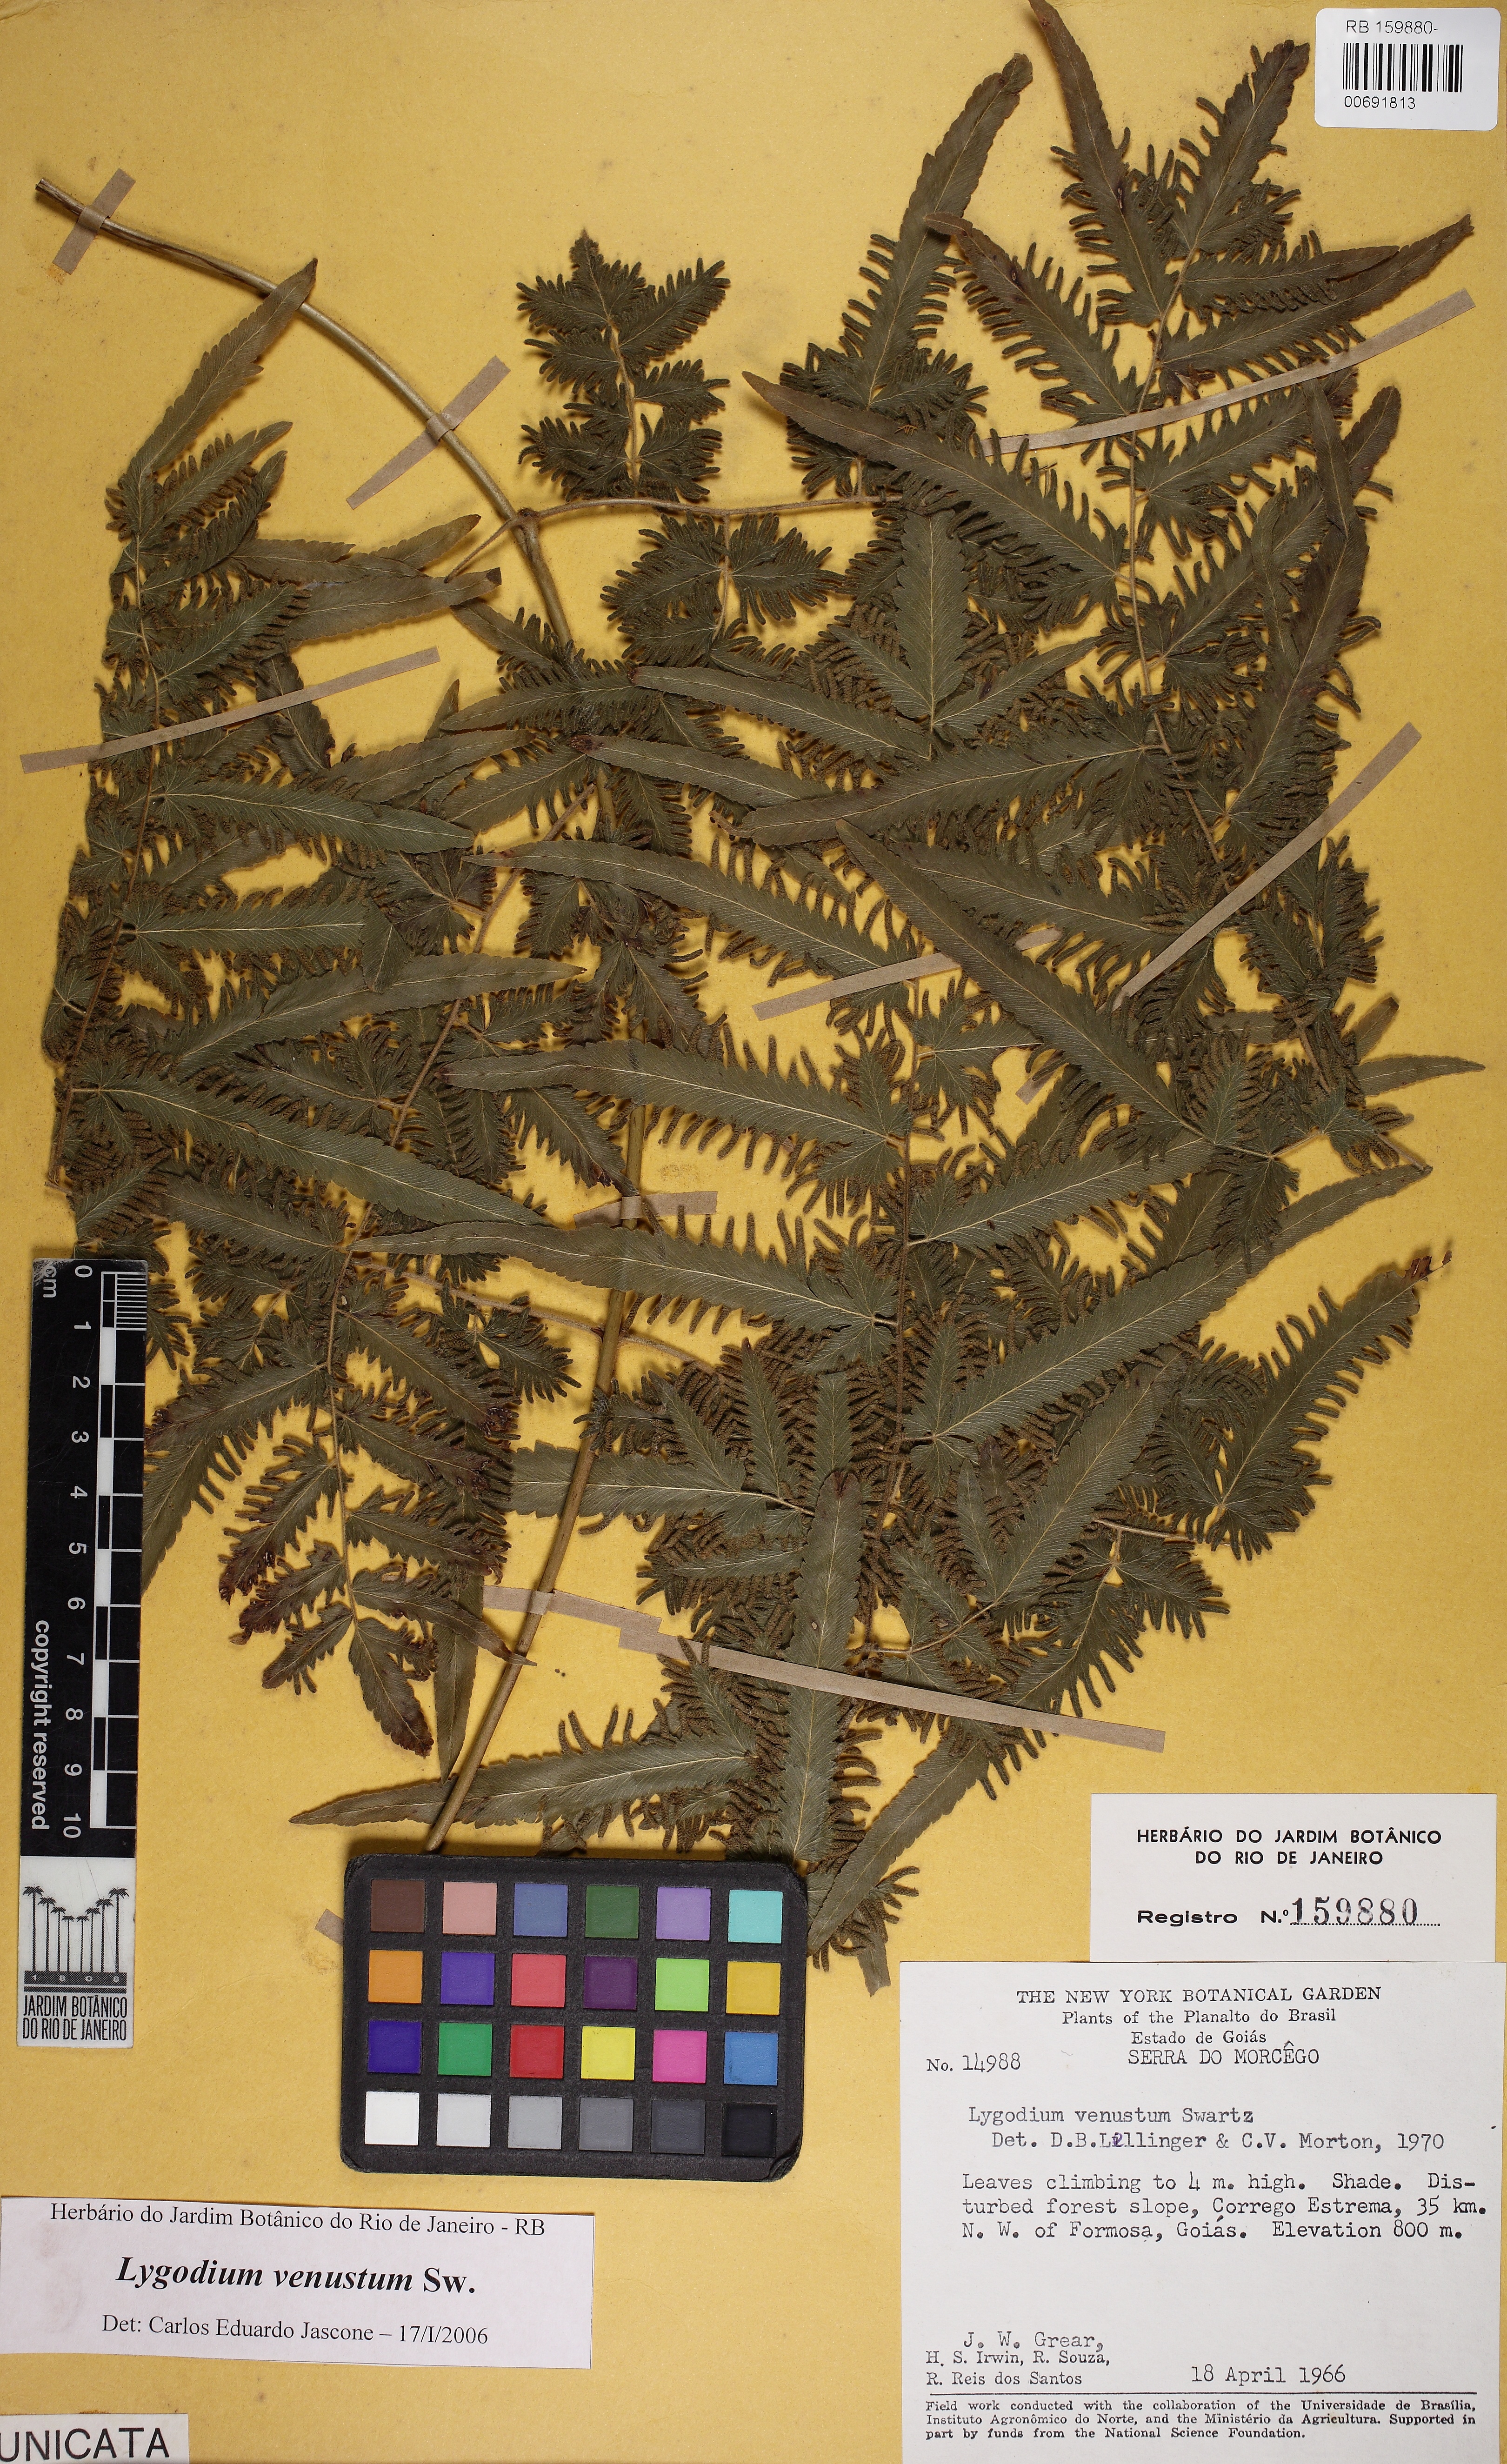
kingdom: Plantae
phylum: Tracheophyta
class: Polypodiopsida
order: Schizaeales
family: Lygodiaceae
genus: Lygodium
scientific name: Lygodium venustum
